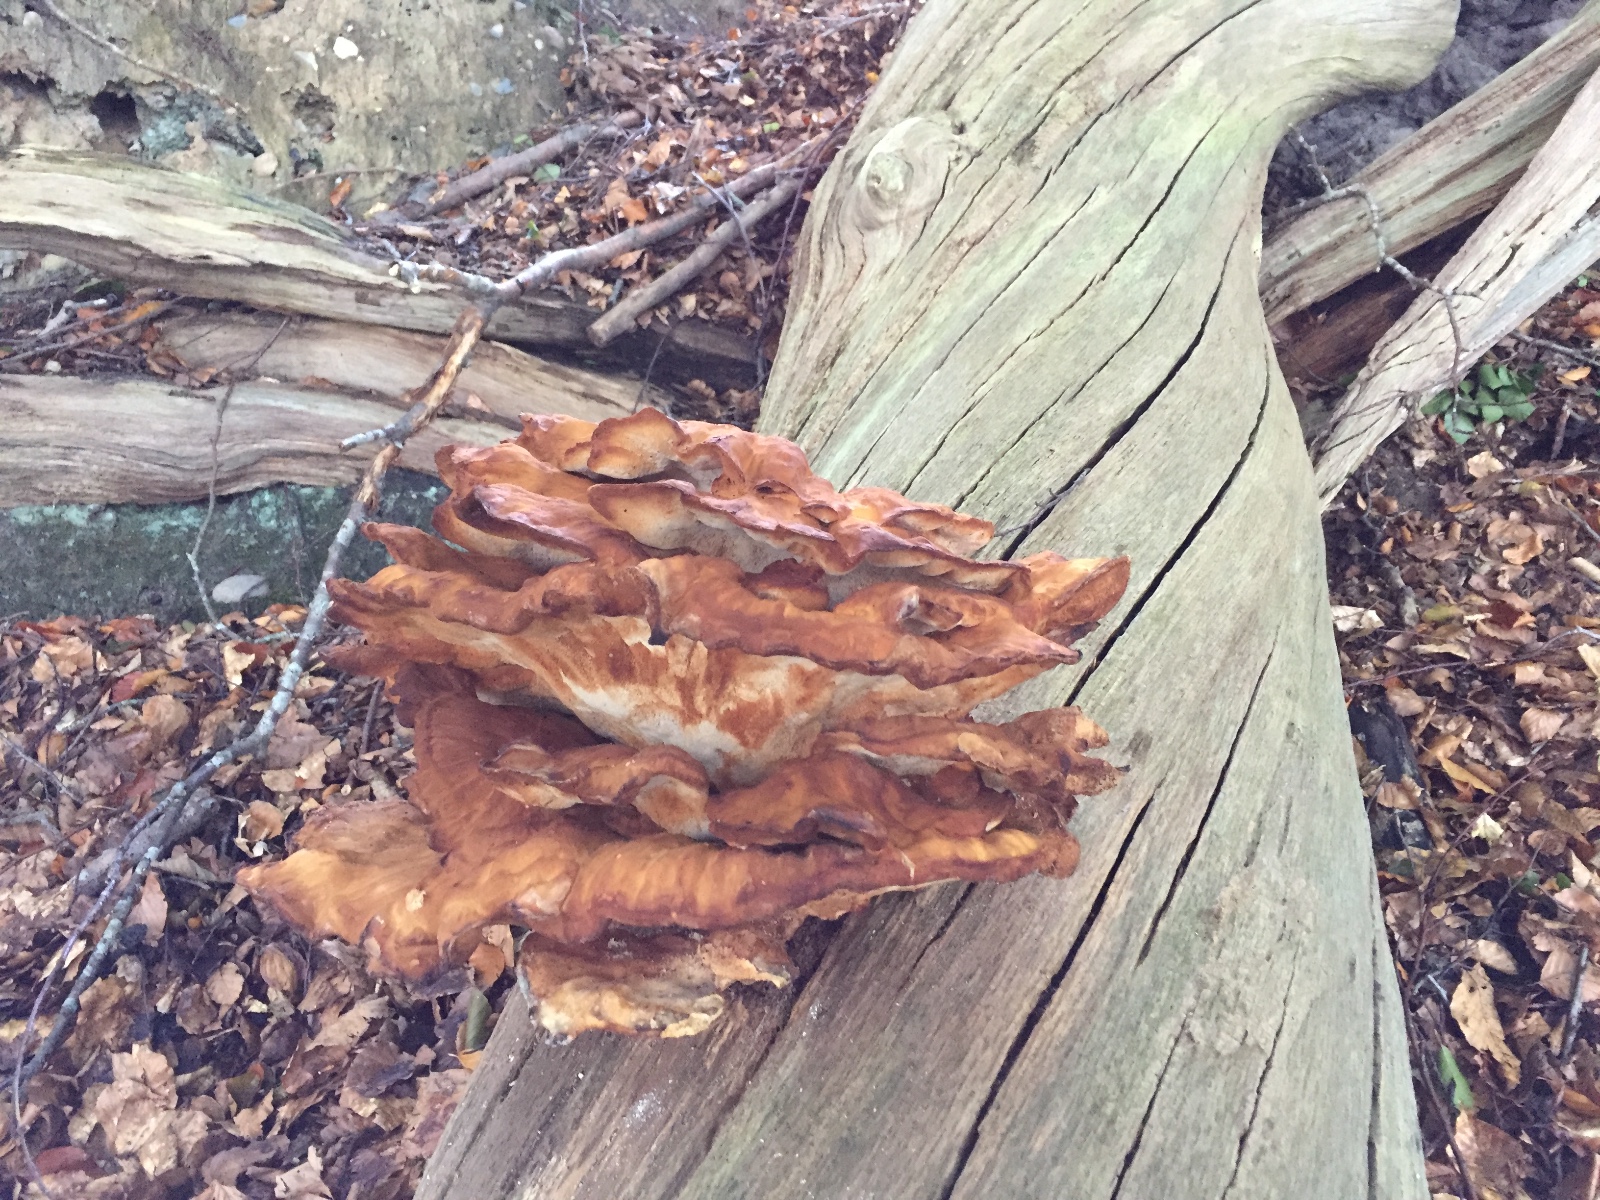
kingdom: Fungi
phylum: Basidiomycota
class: Agaricomycetes
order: Polyporales
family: Laetiporaceae
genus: Laetiporus
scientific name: Laetiporus sulphureus
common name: svovlporesvamp
